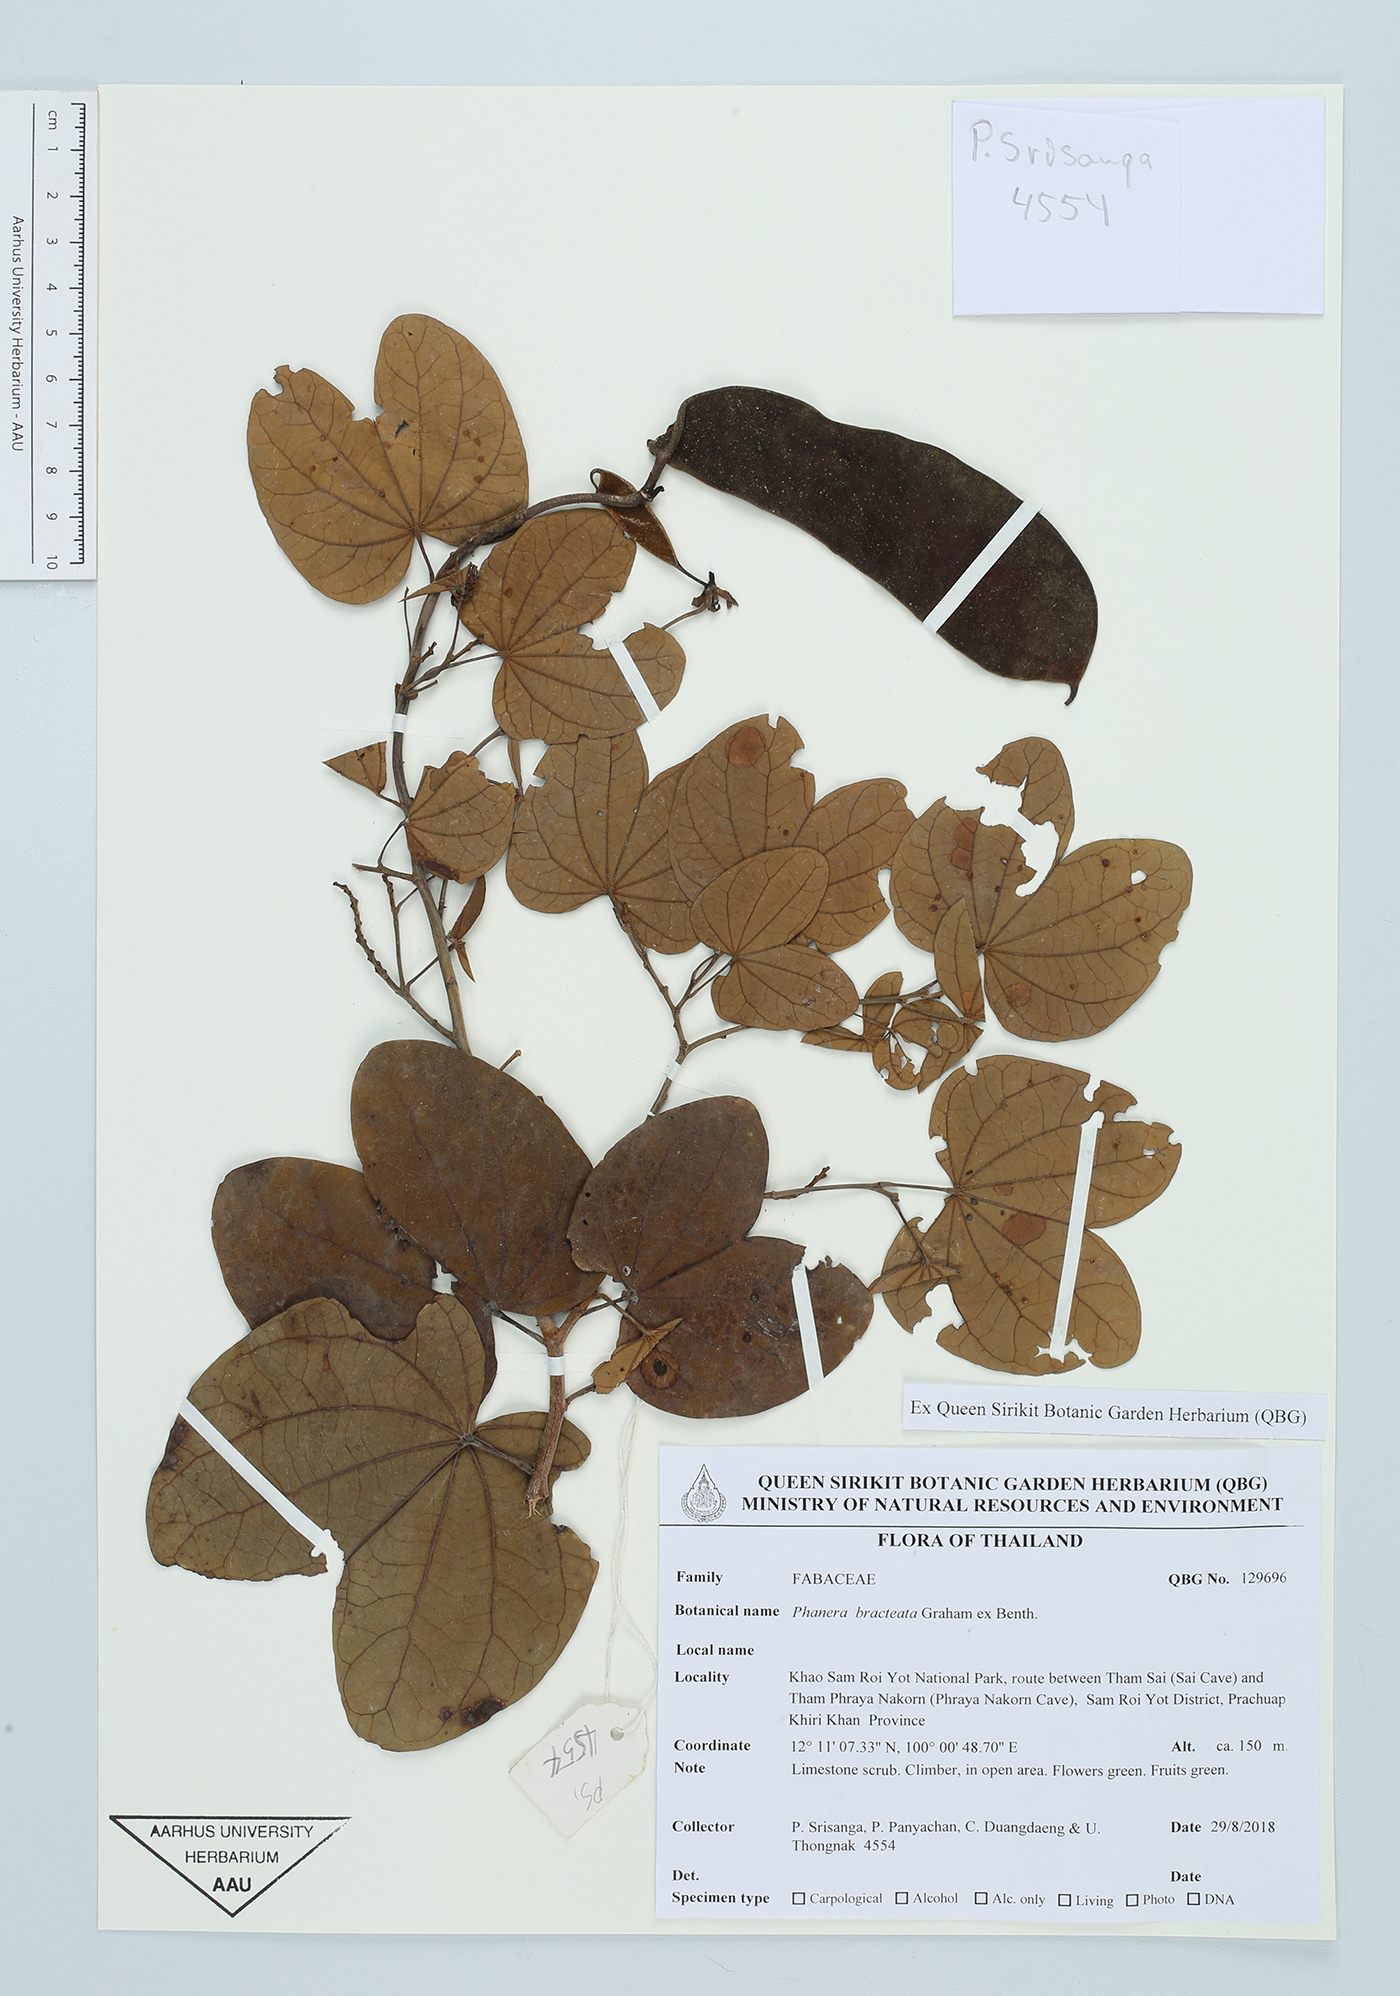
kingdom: Plantae
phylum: Tracheophyta
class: Magnoliopsida
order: Fabales
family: Fabaceae
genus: Phanera
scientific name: Phanera bracteata
